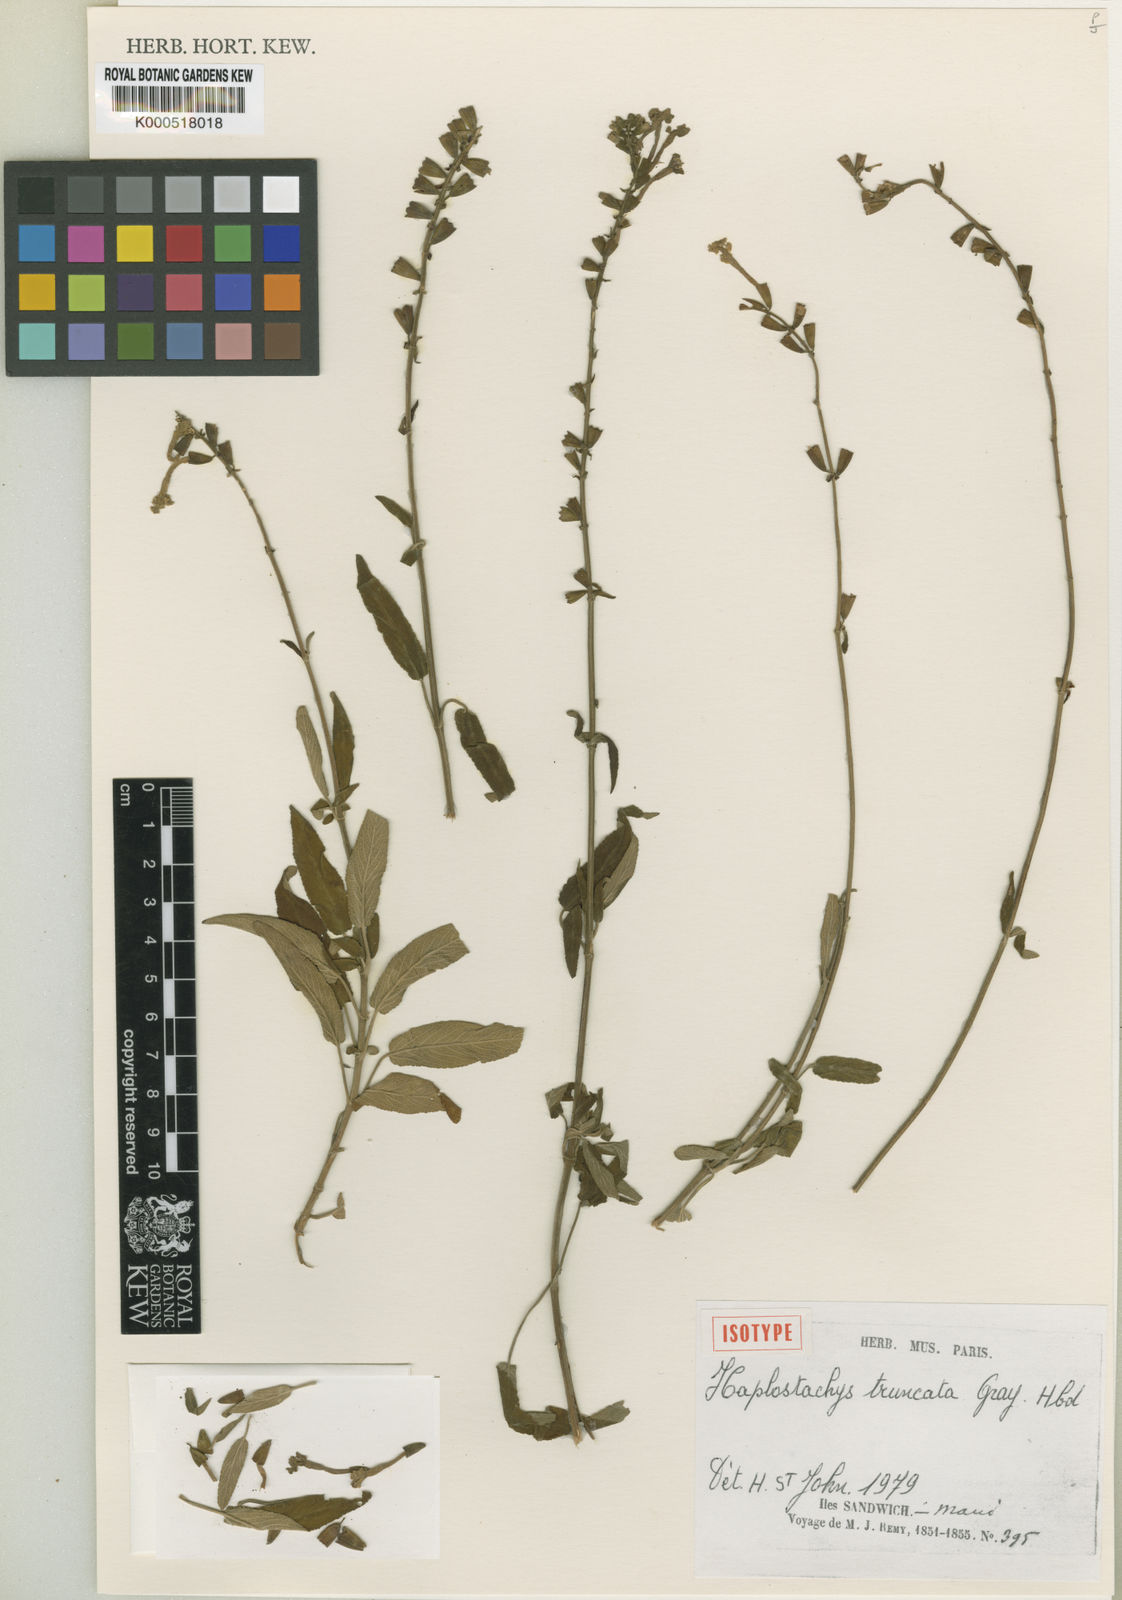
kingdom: Plantae
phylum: Tracheophyta
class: Magnoliopsida
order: Lamiales
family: Lamiaceae
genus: Haplostachys
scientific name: Haplostachys truncata
